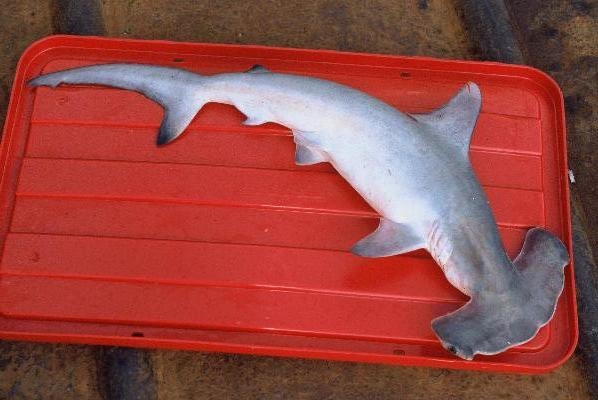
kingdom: Animalia
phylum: Chordata
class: Elasmobranchii
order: Carcharhiniformes
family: Sphyrnidae
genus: Sphyrna
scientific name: Sphyrna lewini
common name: Scalloped hammerhead
